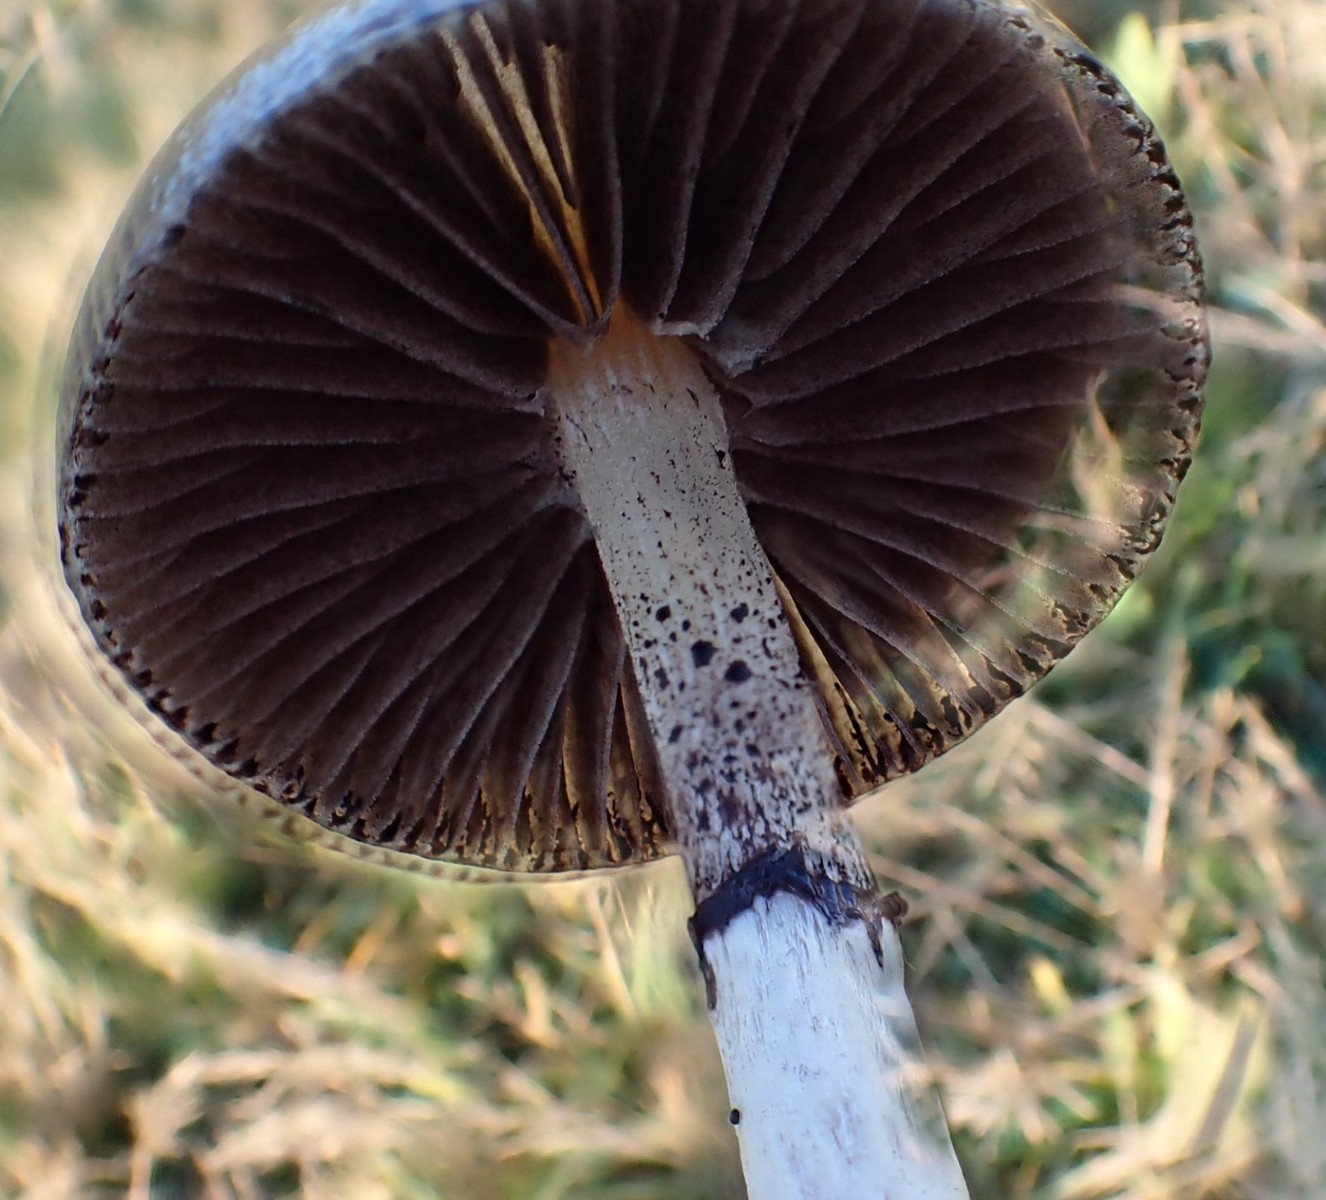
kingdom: Fungi
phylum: Basidiomycota
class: Agaricomycetes
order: Agaricales
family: Strophariaceae
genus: Protostropharia
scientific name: Protostropharia semiglobata
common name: halvkugleformet bredblad
